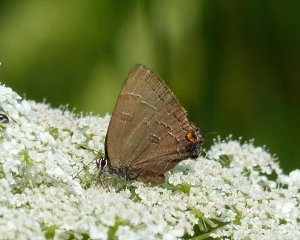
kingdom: Animalia
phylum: Arthropoda
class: Insecta
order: Lepidoptera
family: Lycaenidae
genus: Satyrium
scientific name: Satyrium calanus
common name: Banded Hairstreak
